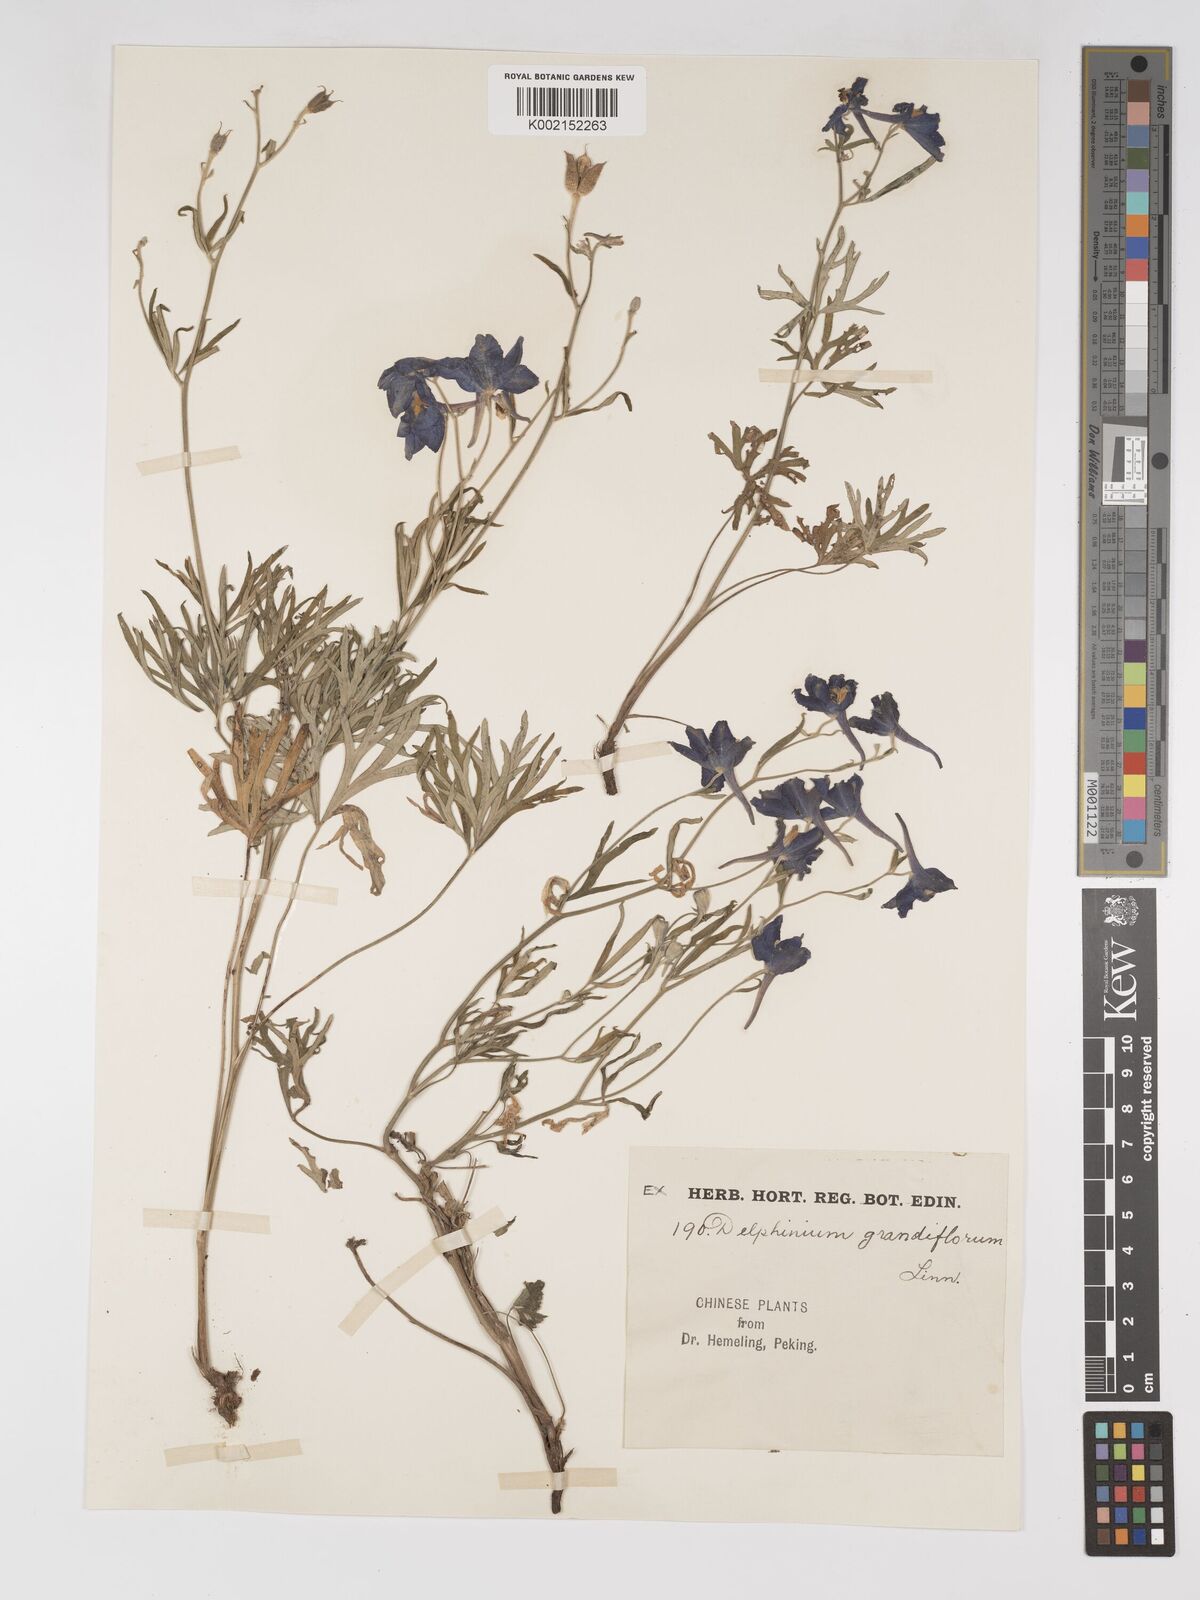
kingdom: Plantae
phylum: Tracheophyta
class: Magnoliopsida
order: Ranunculales
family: Ranunculaceae
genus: Delphinium
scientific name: Delphinium grandiflorum
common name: Siberian larkspur
